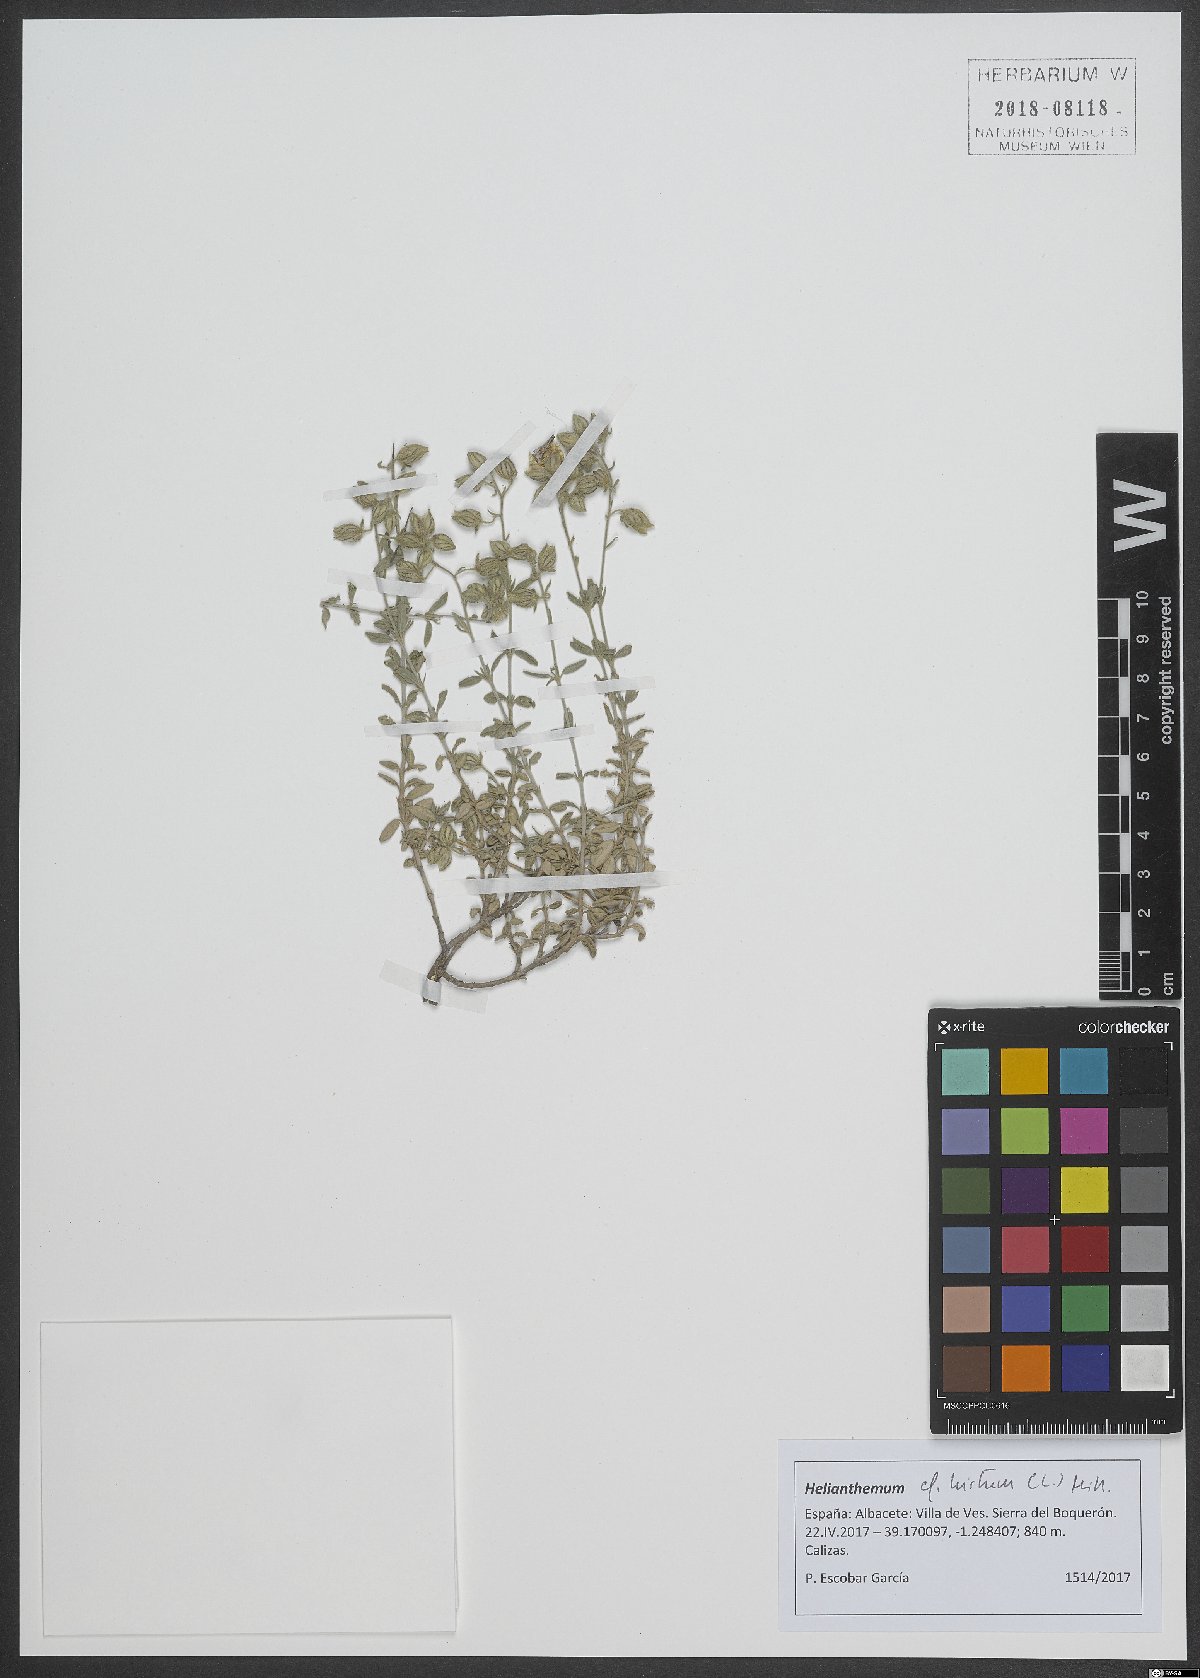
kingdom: Plantae
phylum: Tracheophyta
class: Magnoliopsida
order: Malvales
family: Cistaceae
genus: Helianthemum
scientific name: Helianthemum hirtum
